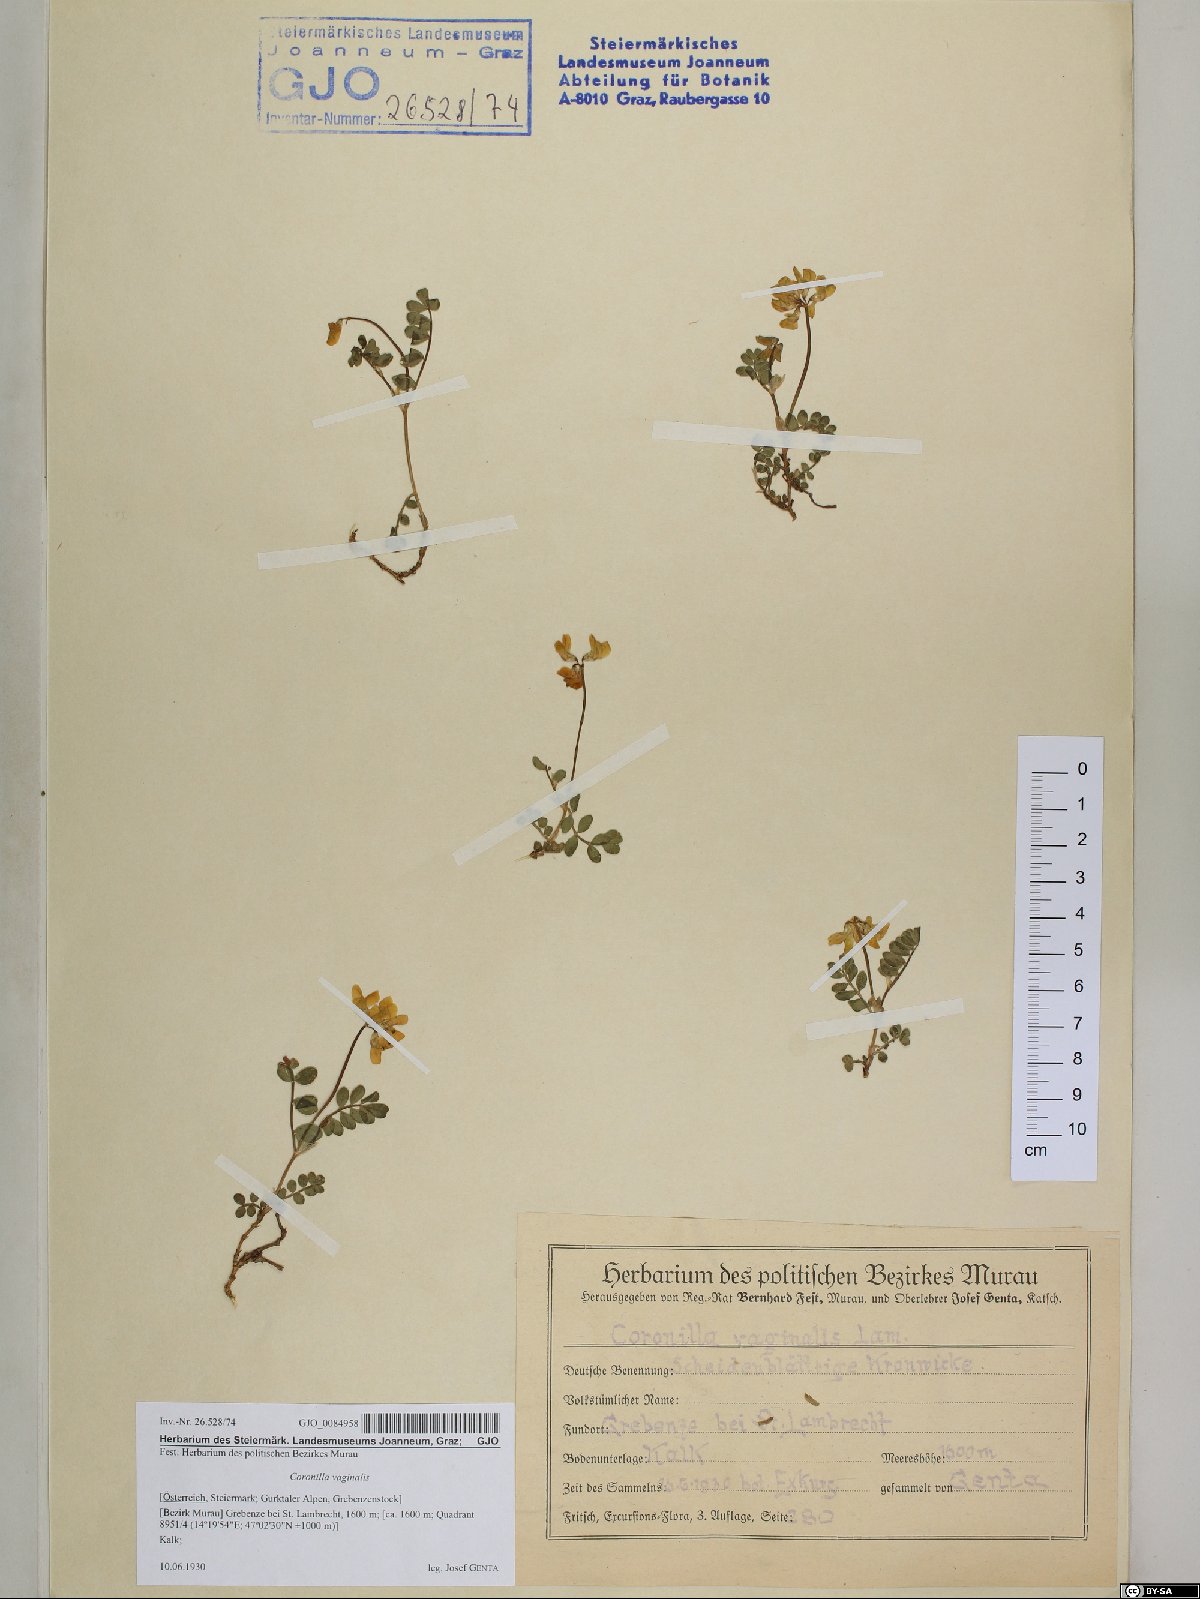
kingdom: Plantae
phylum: Tracheophyta
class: Magnoliopsida
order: Fabales
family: Fabaceae
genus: Coronilla
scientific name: Coronilla vaginalis
